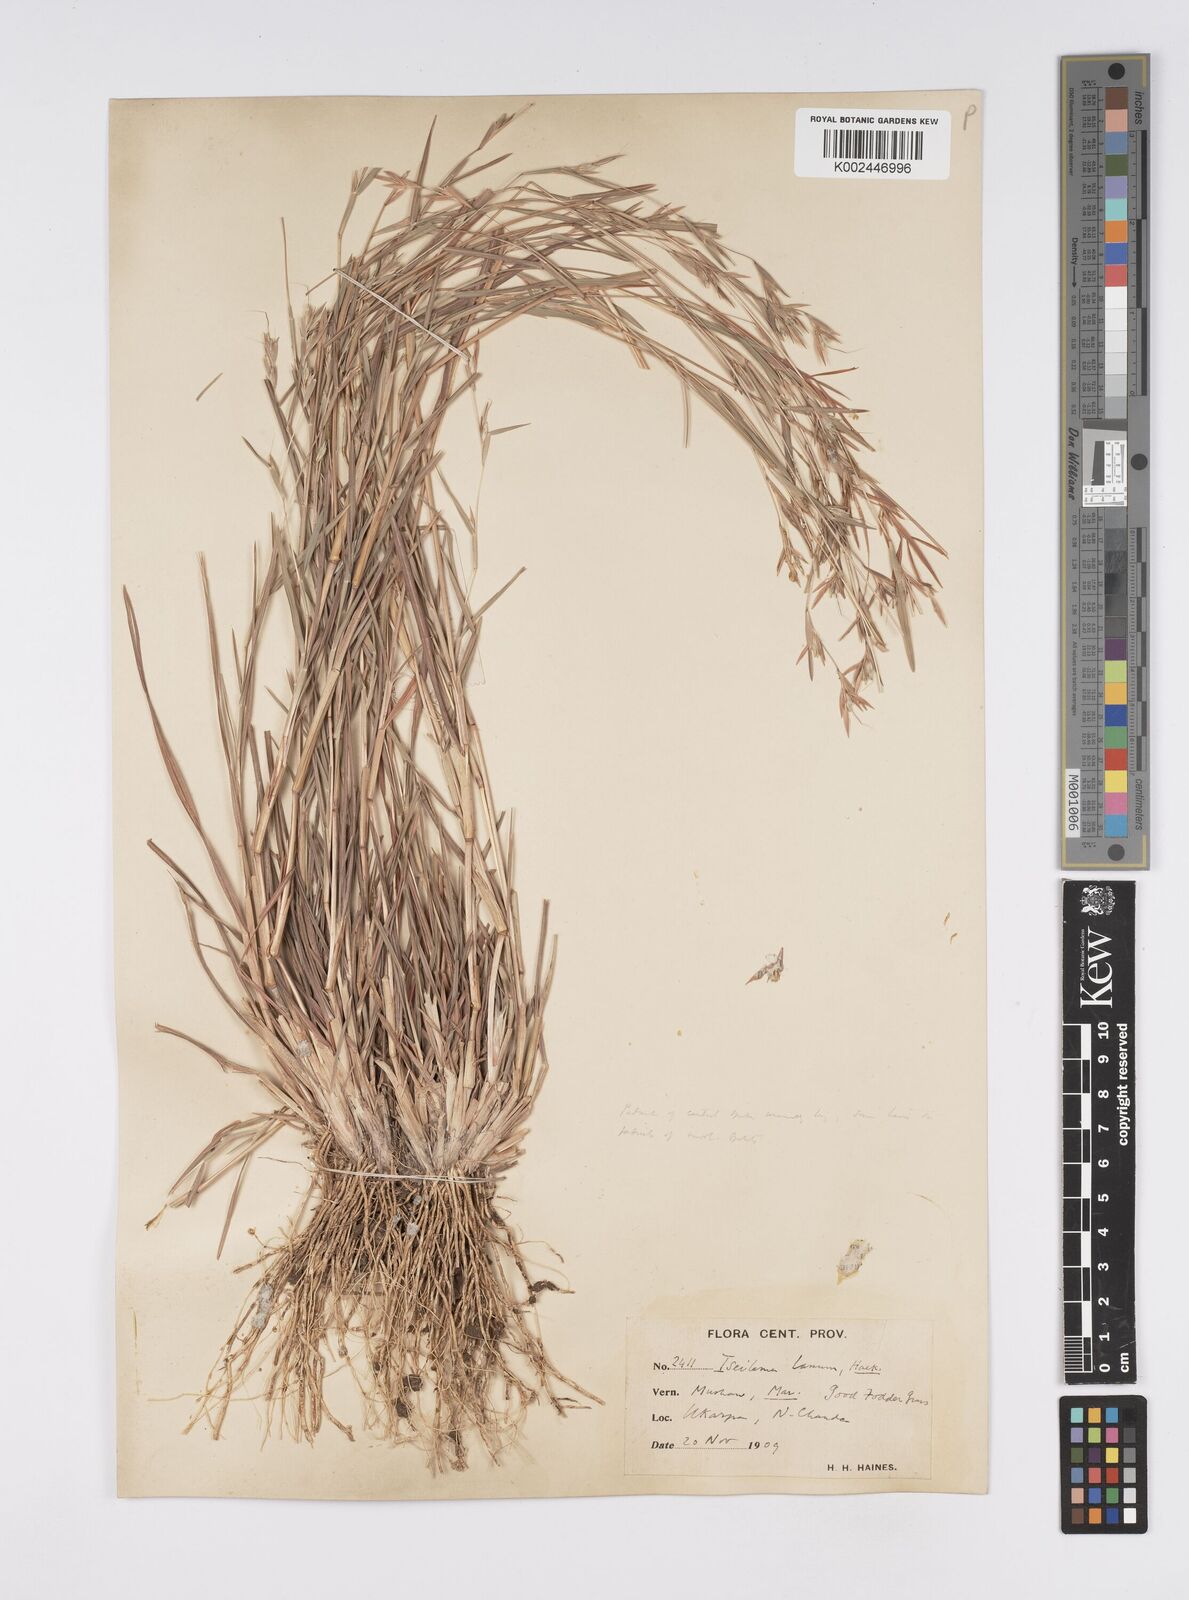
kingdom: Plantae
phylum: Tracheophyta
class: Liliopsida
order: Poales
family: Poaceae
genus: Iseilema
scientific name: Iseilema prostratum
